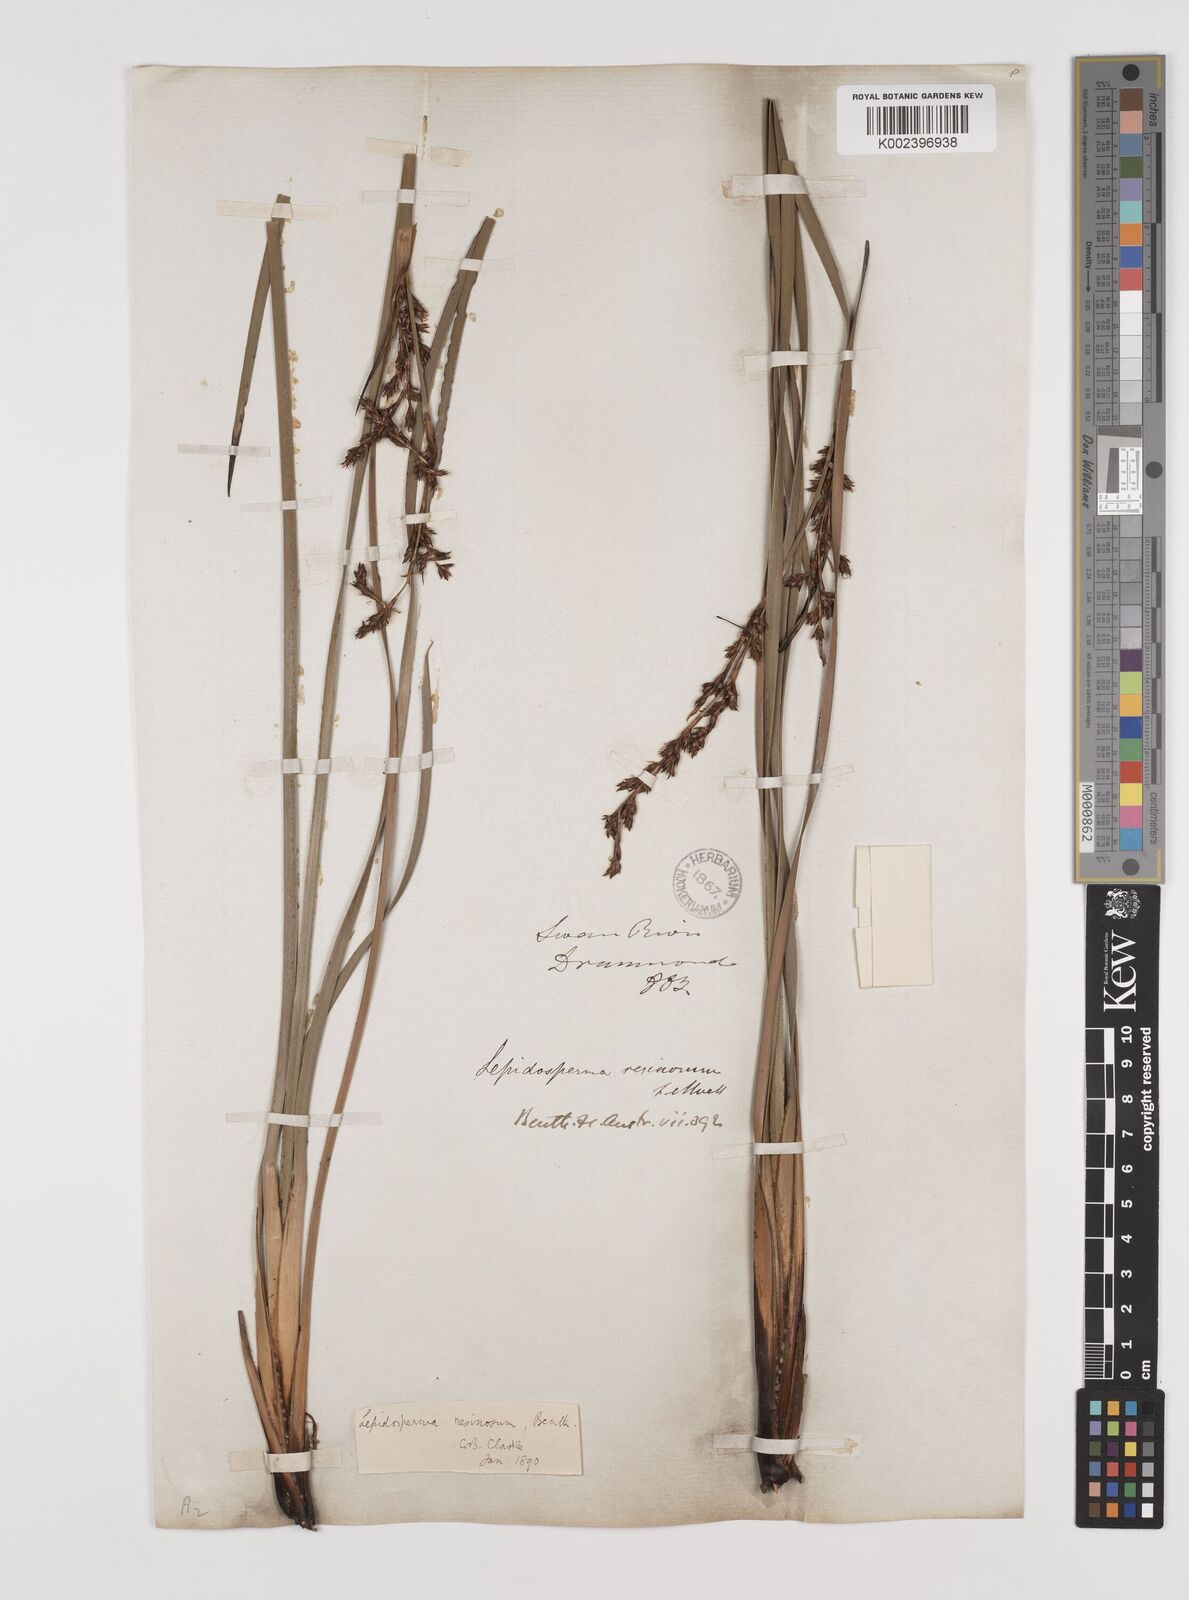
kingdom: Plantae
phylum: Tracheophyta
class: Liliopsida
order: Poales
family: Cyperaceae
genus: Lepidosperma
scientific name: Lepidosperma resinosum
